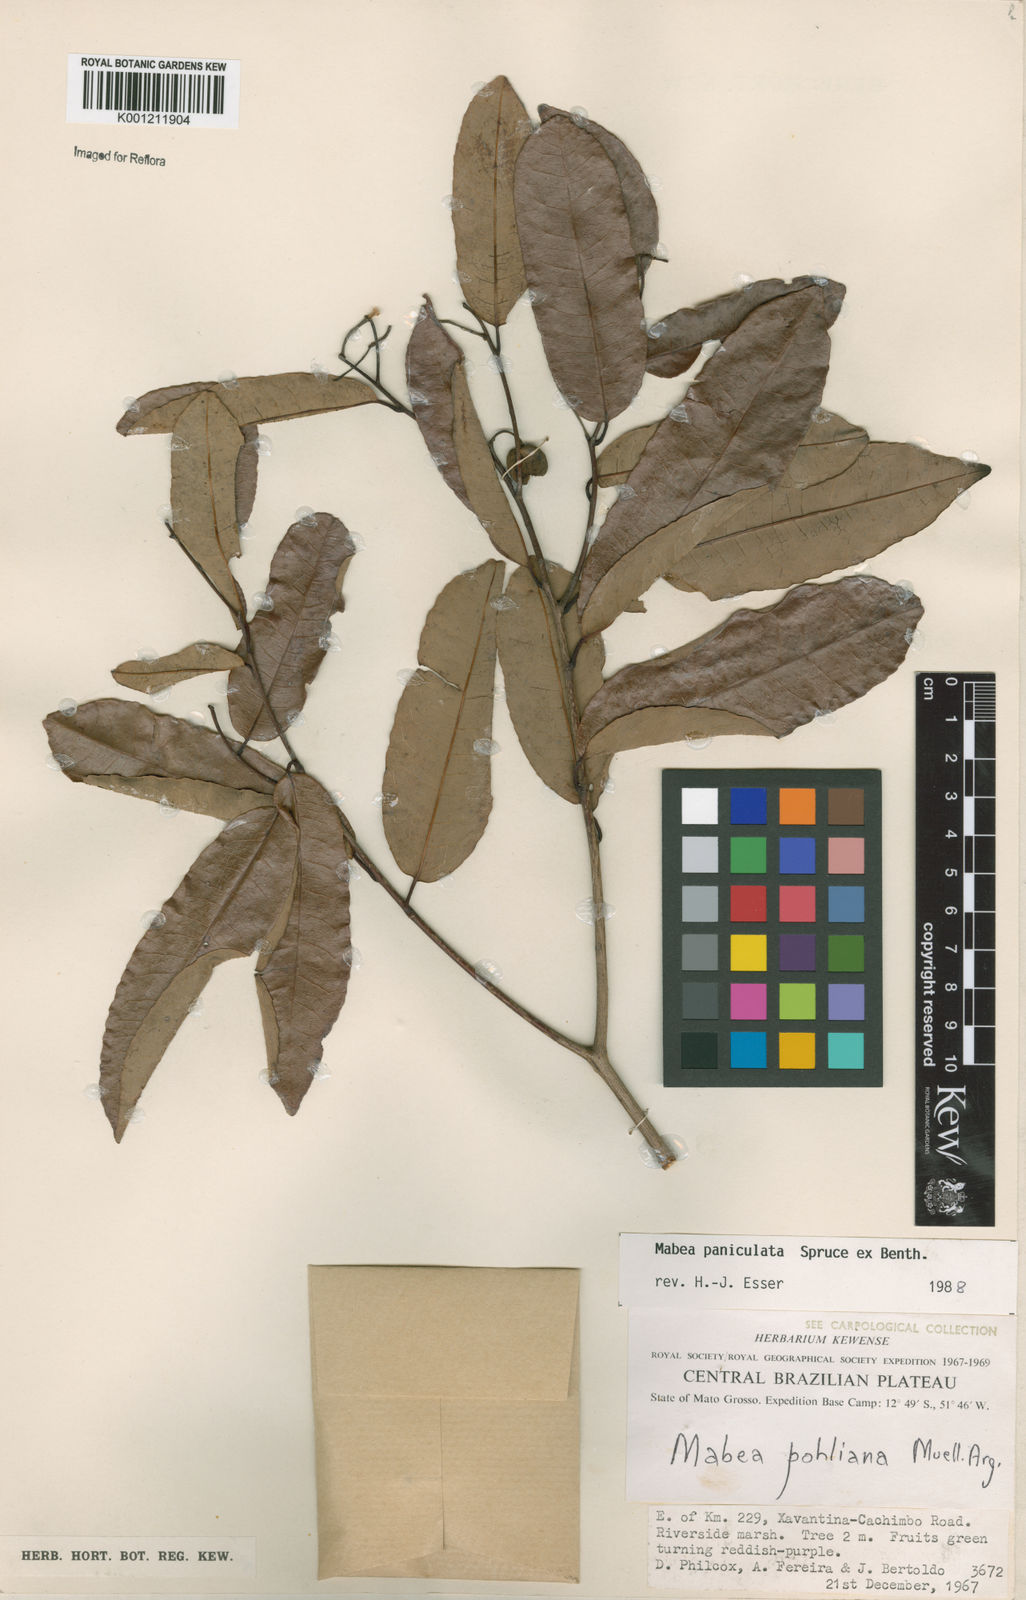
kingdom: Plantae
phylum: Tracheophyta
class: Magnoliopsida
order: Malpighiales
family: Euphorbiaceae
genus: Mabea
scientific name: Mabea paniculata
